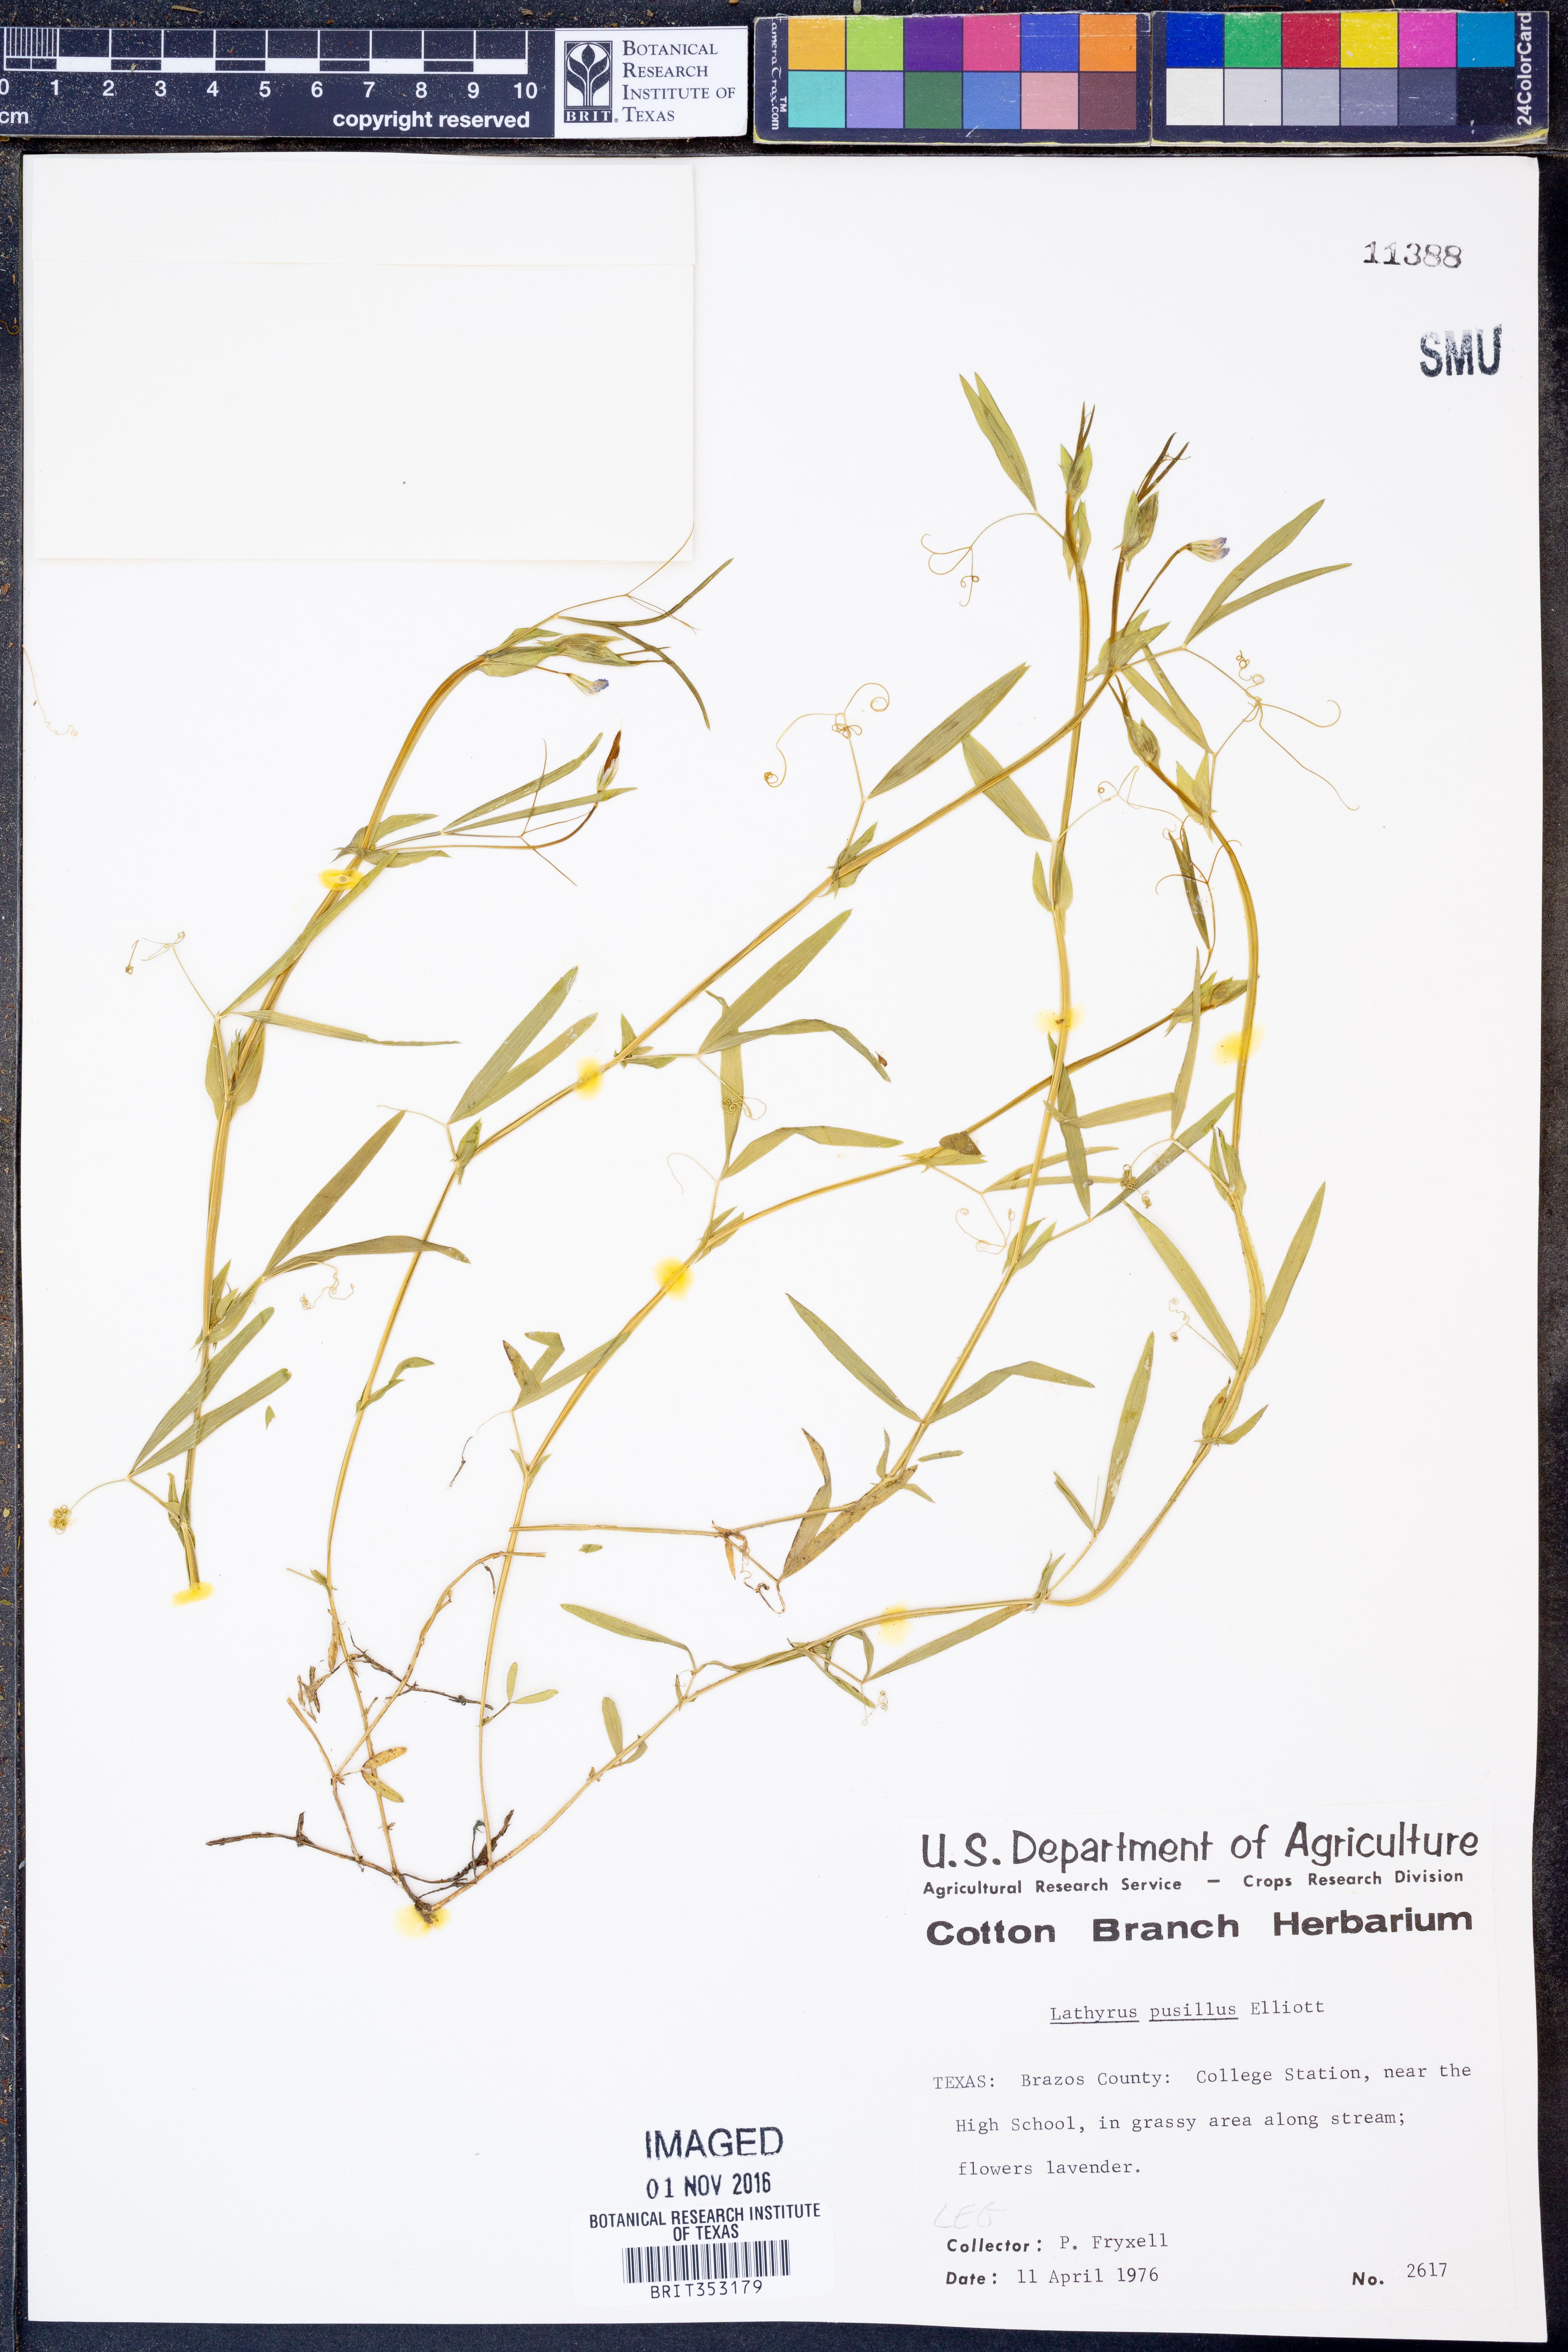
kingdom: Plantae
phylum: Tracheophyta
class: Magnoliopsida
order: Fabales
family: Fabaceae
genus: Lathyrus
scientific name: Lathyrus pusillus
